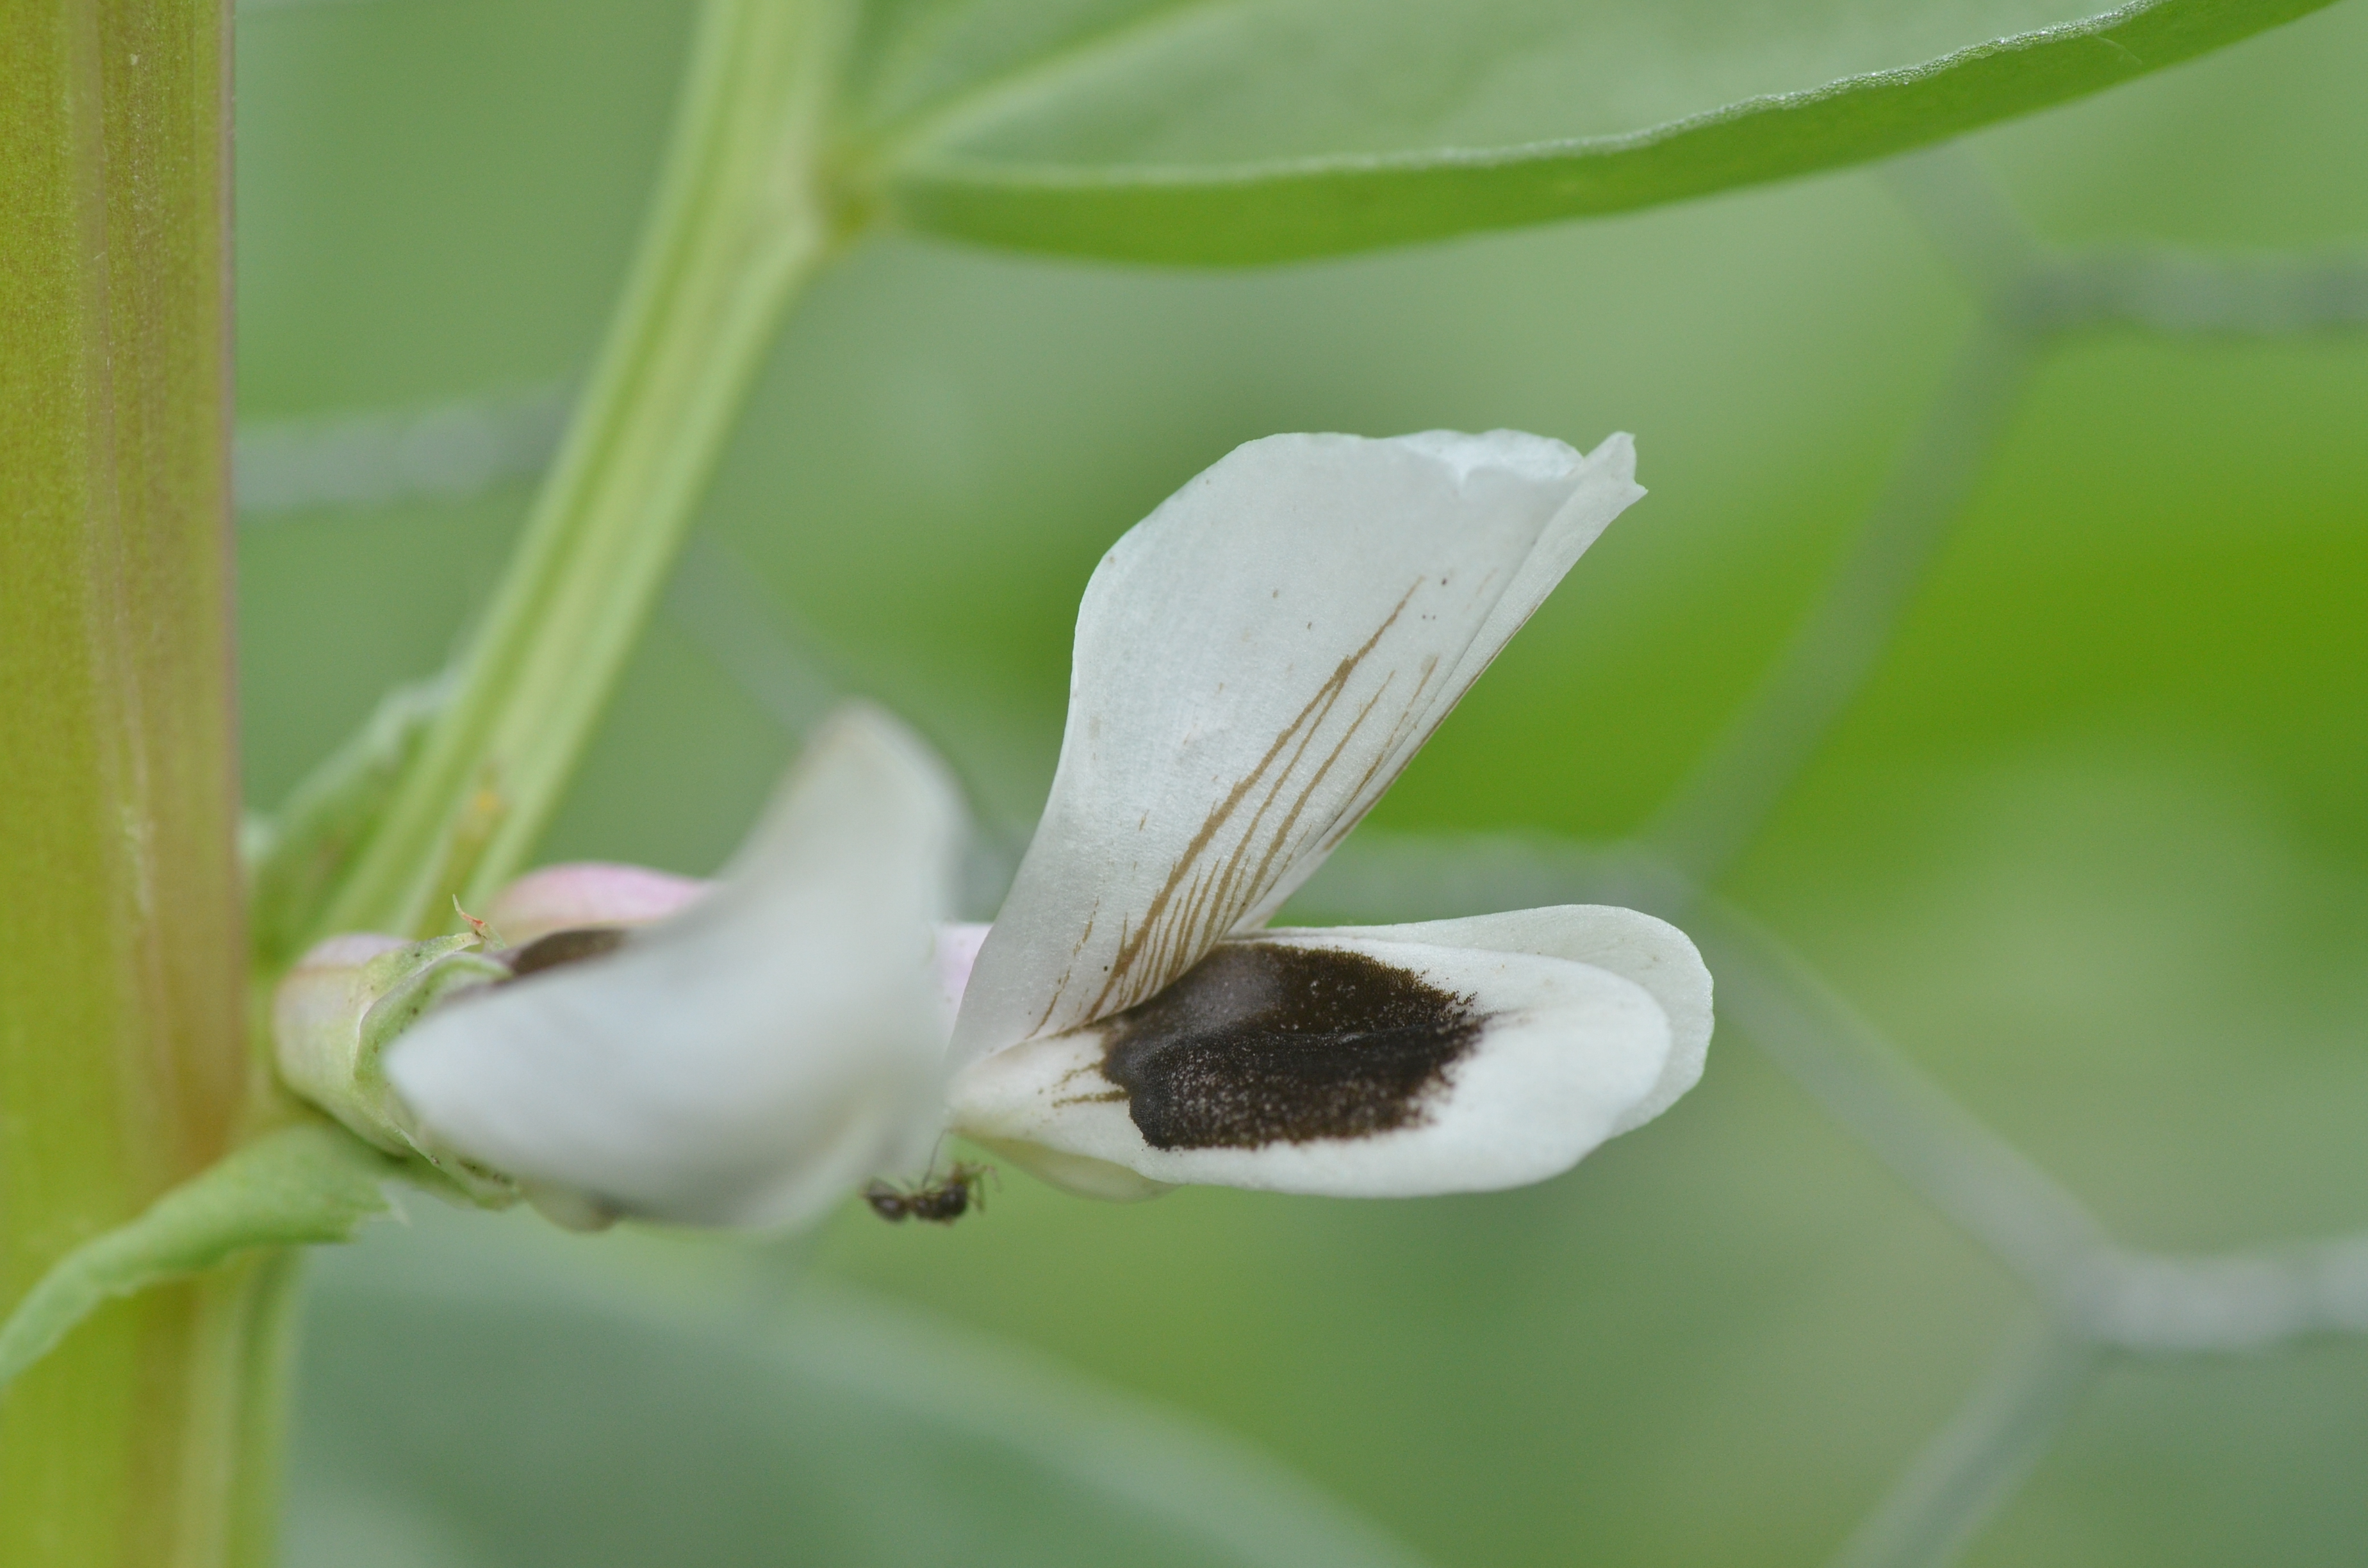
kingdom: Plantae
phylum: Tracheophyta
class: Magnoliopsida
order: Fabales
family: Fabaceae
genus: Vicia
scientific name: Vicia faba
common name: Broad bean
